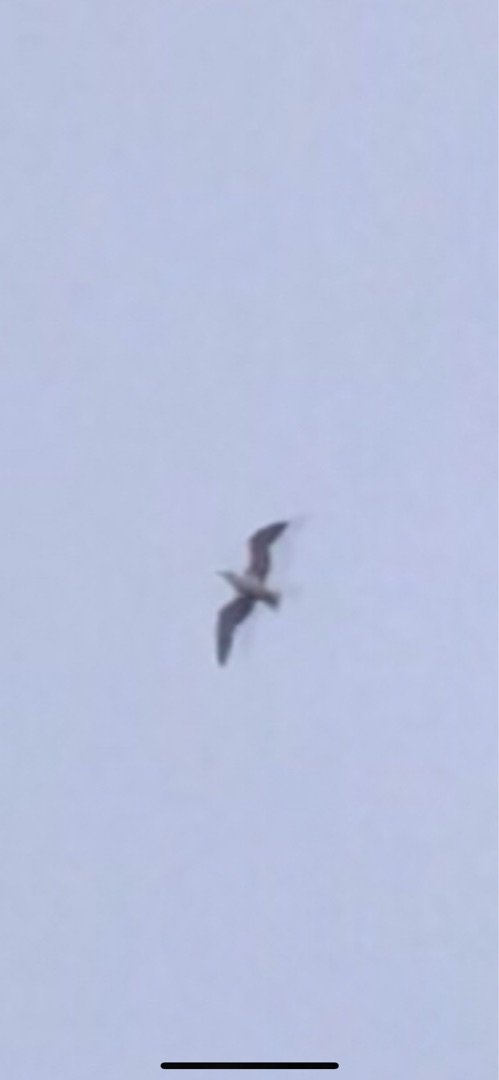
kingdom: Animalia
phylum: Chordata
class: Aves
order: Charadriiformes
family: Laridae
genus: Larus
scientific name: Larus argentatus
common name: Sølvmåge
